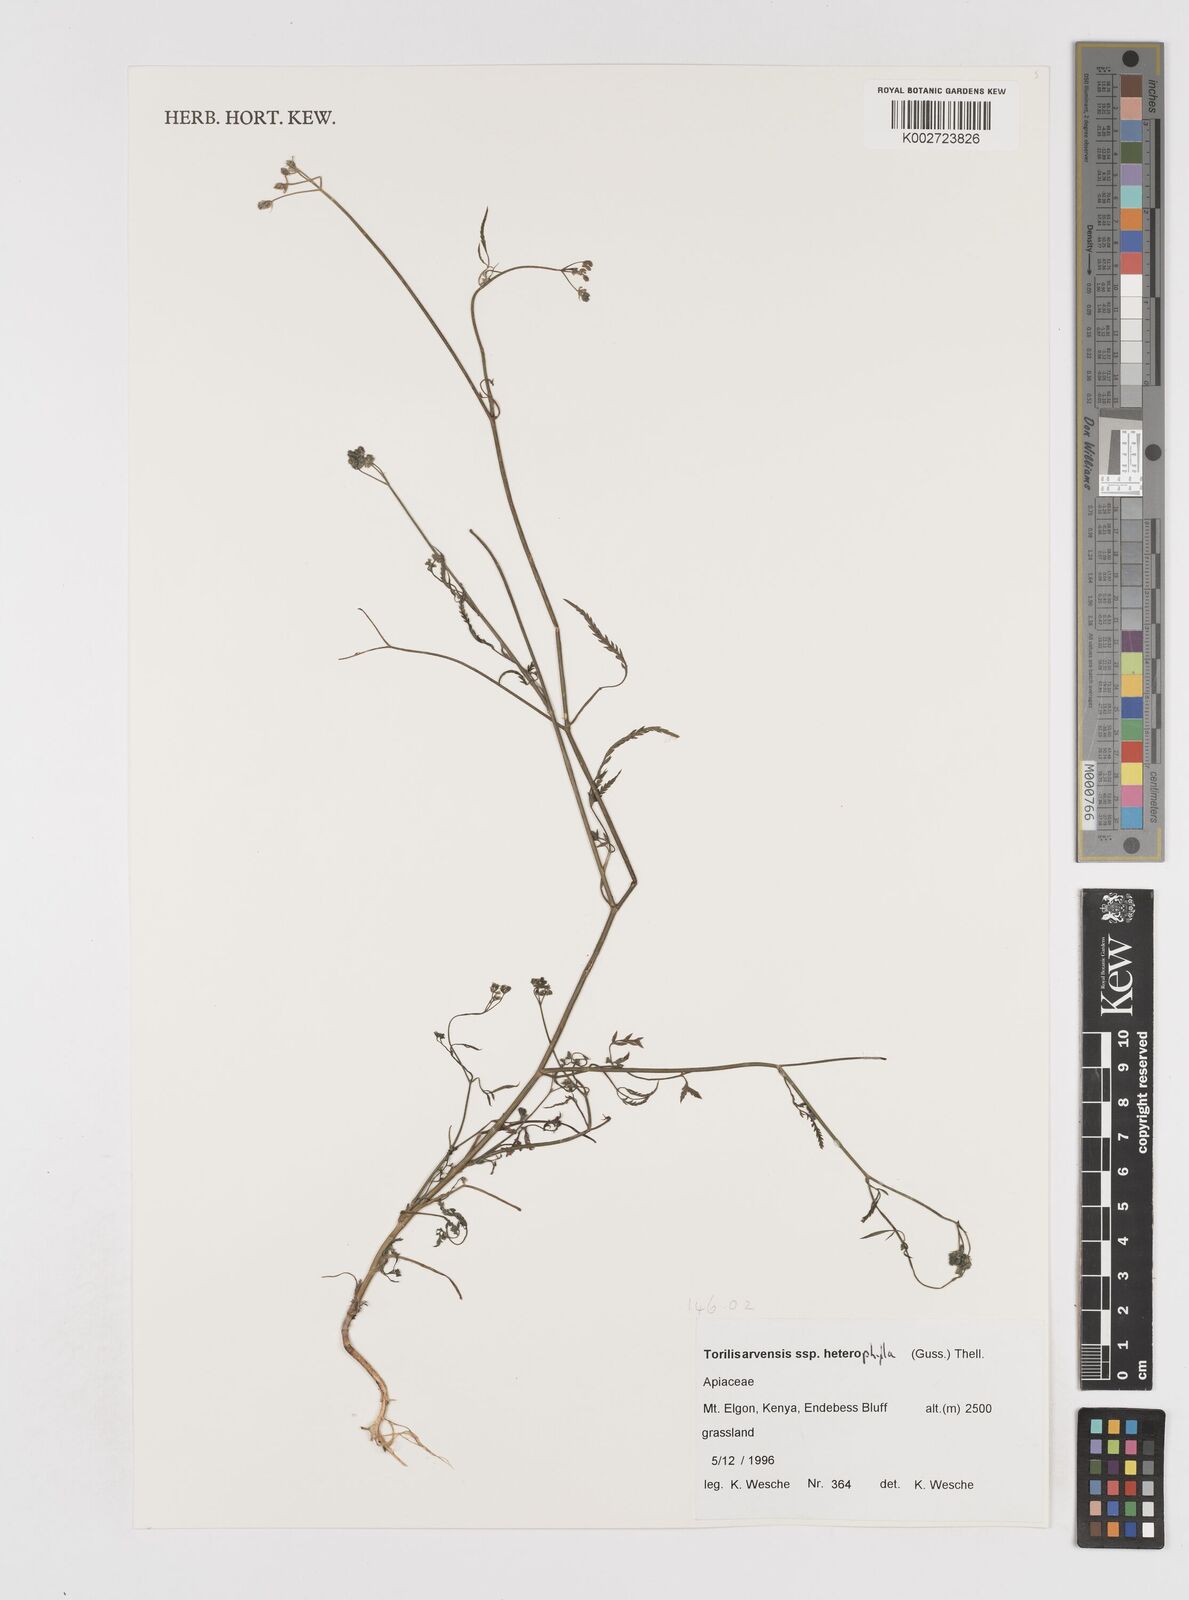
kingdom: Plantae
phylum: Tracheophyta
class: Magnoliopsida
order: Apiales
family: Apiaceae
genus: Torilis
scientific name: Torilis arvensis
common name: Spreading hedge-parsley
